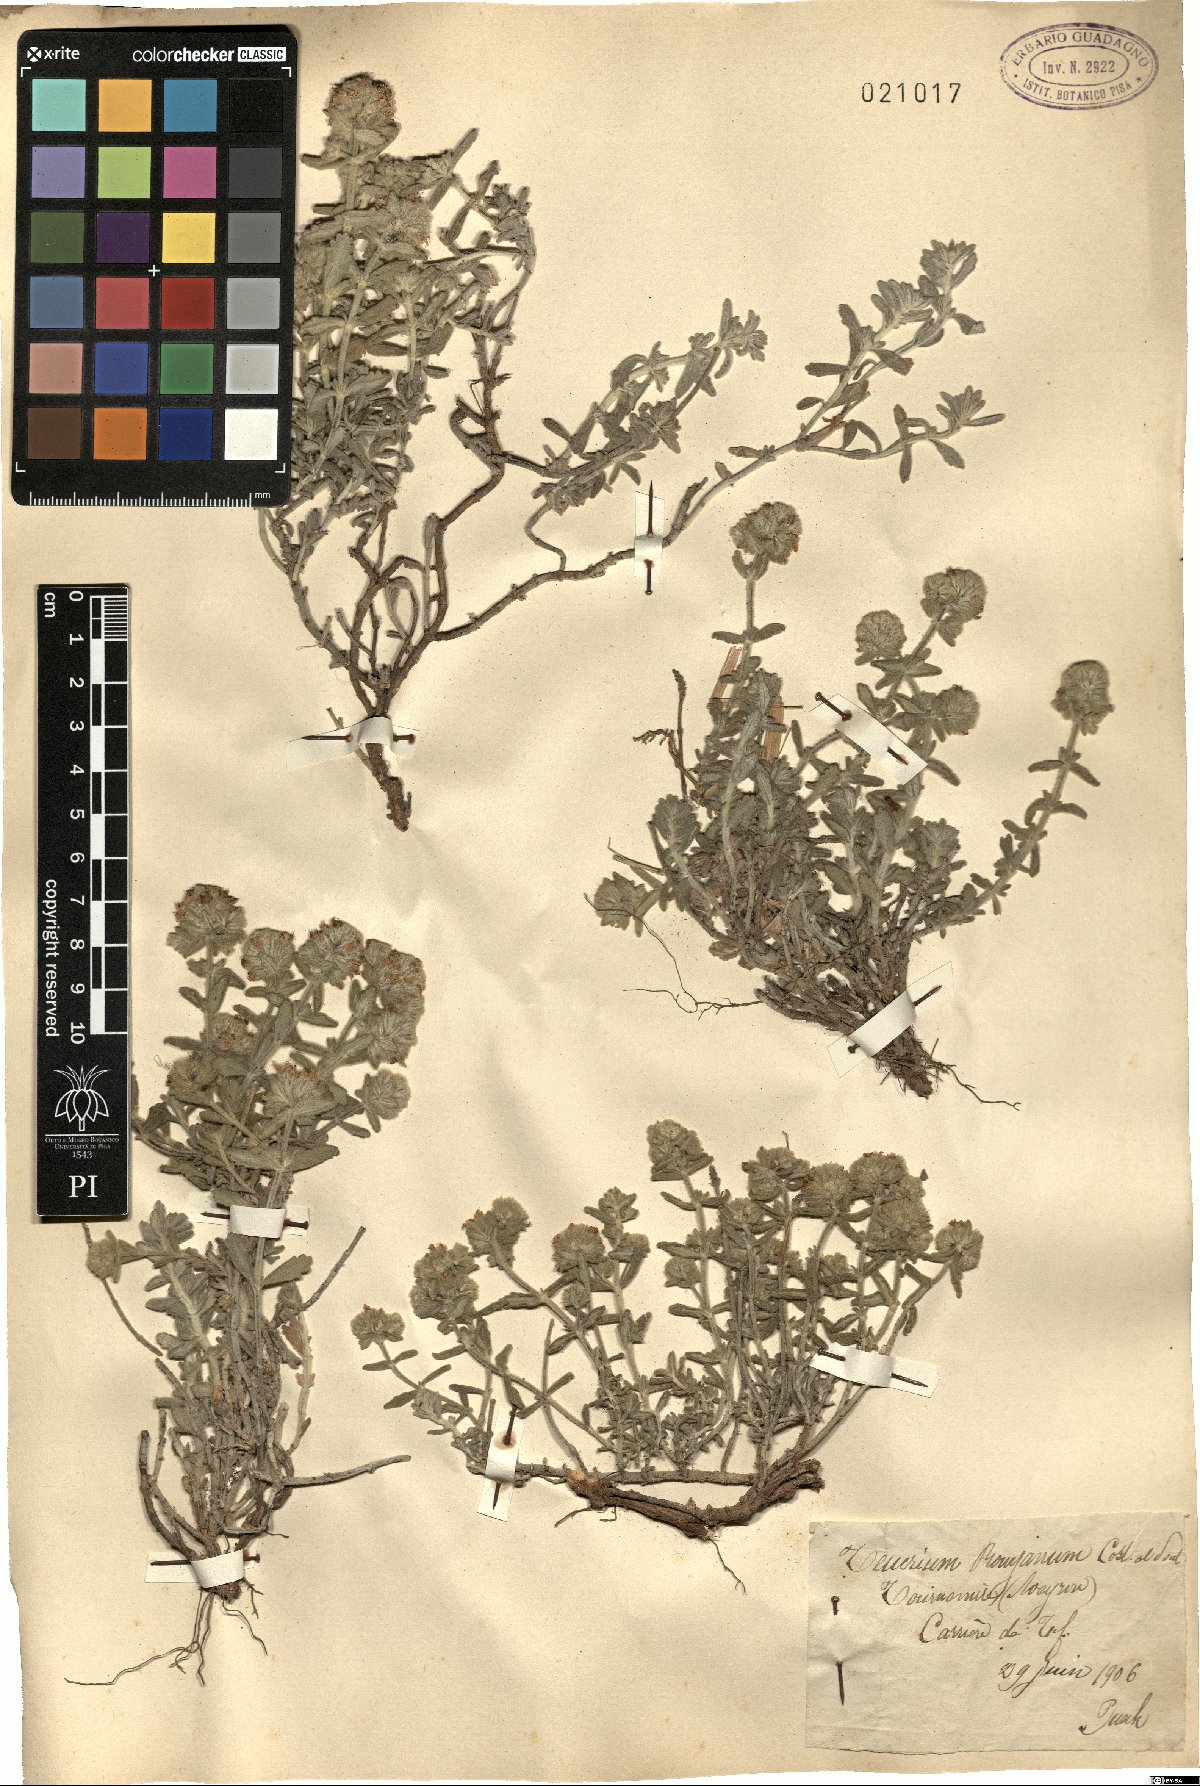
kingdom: Plantae
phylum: Tracheophyta
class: Magnoliopsida
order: Lamiales
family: Lamiaceae
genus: Teucrium
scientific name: Teucrium rouyanum
